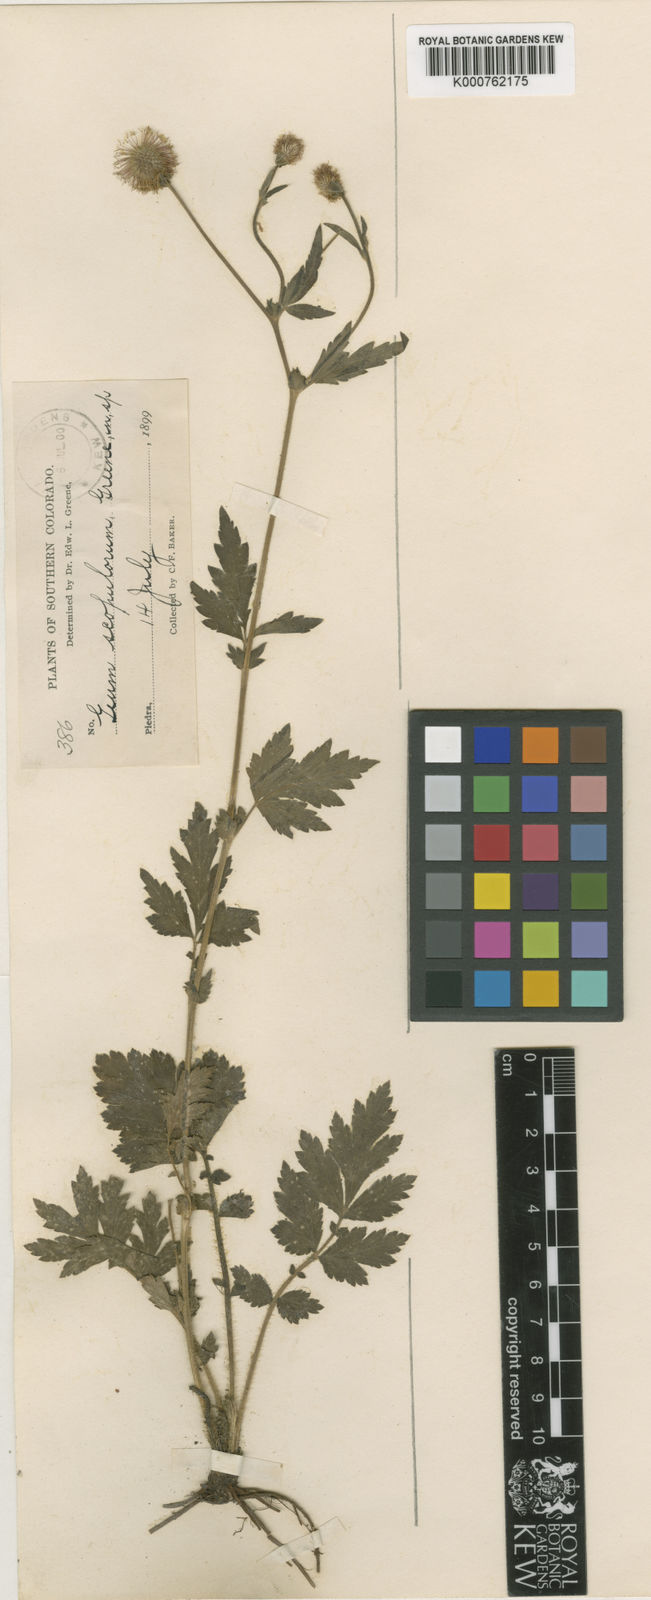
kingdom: Plantae
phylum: Tracheophyta
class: Magnoliopsida
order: Rosales
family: Rosaceae
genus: Geum
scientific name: Geum scopulorum
